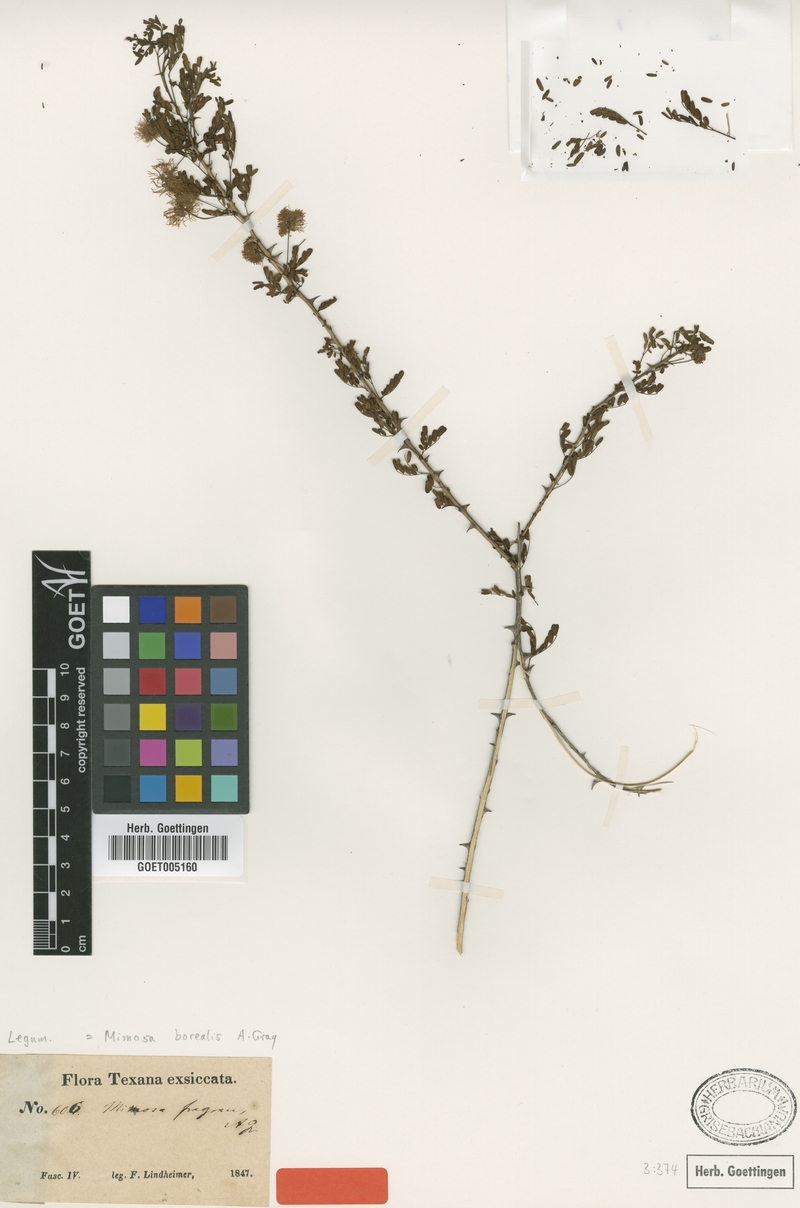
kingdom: Plantae
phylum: Tracheophyta
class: Magnoliopsida
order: Fabales
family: Fabaceae
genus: Mimosa
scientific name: Mimosa borealis
